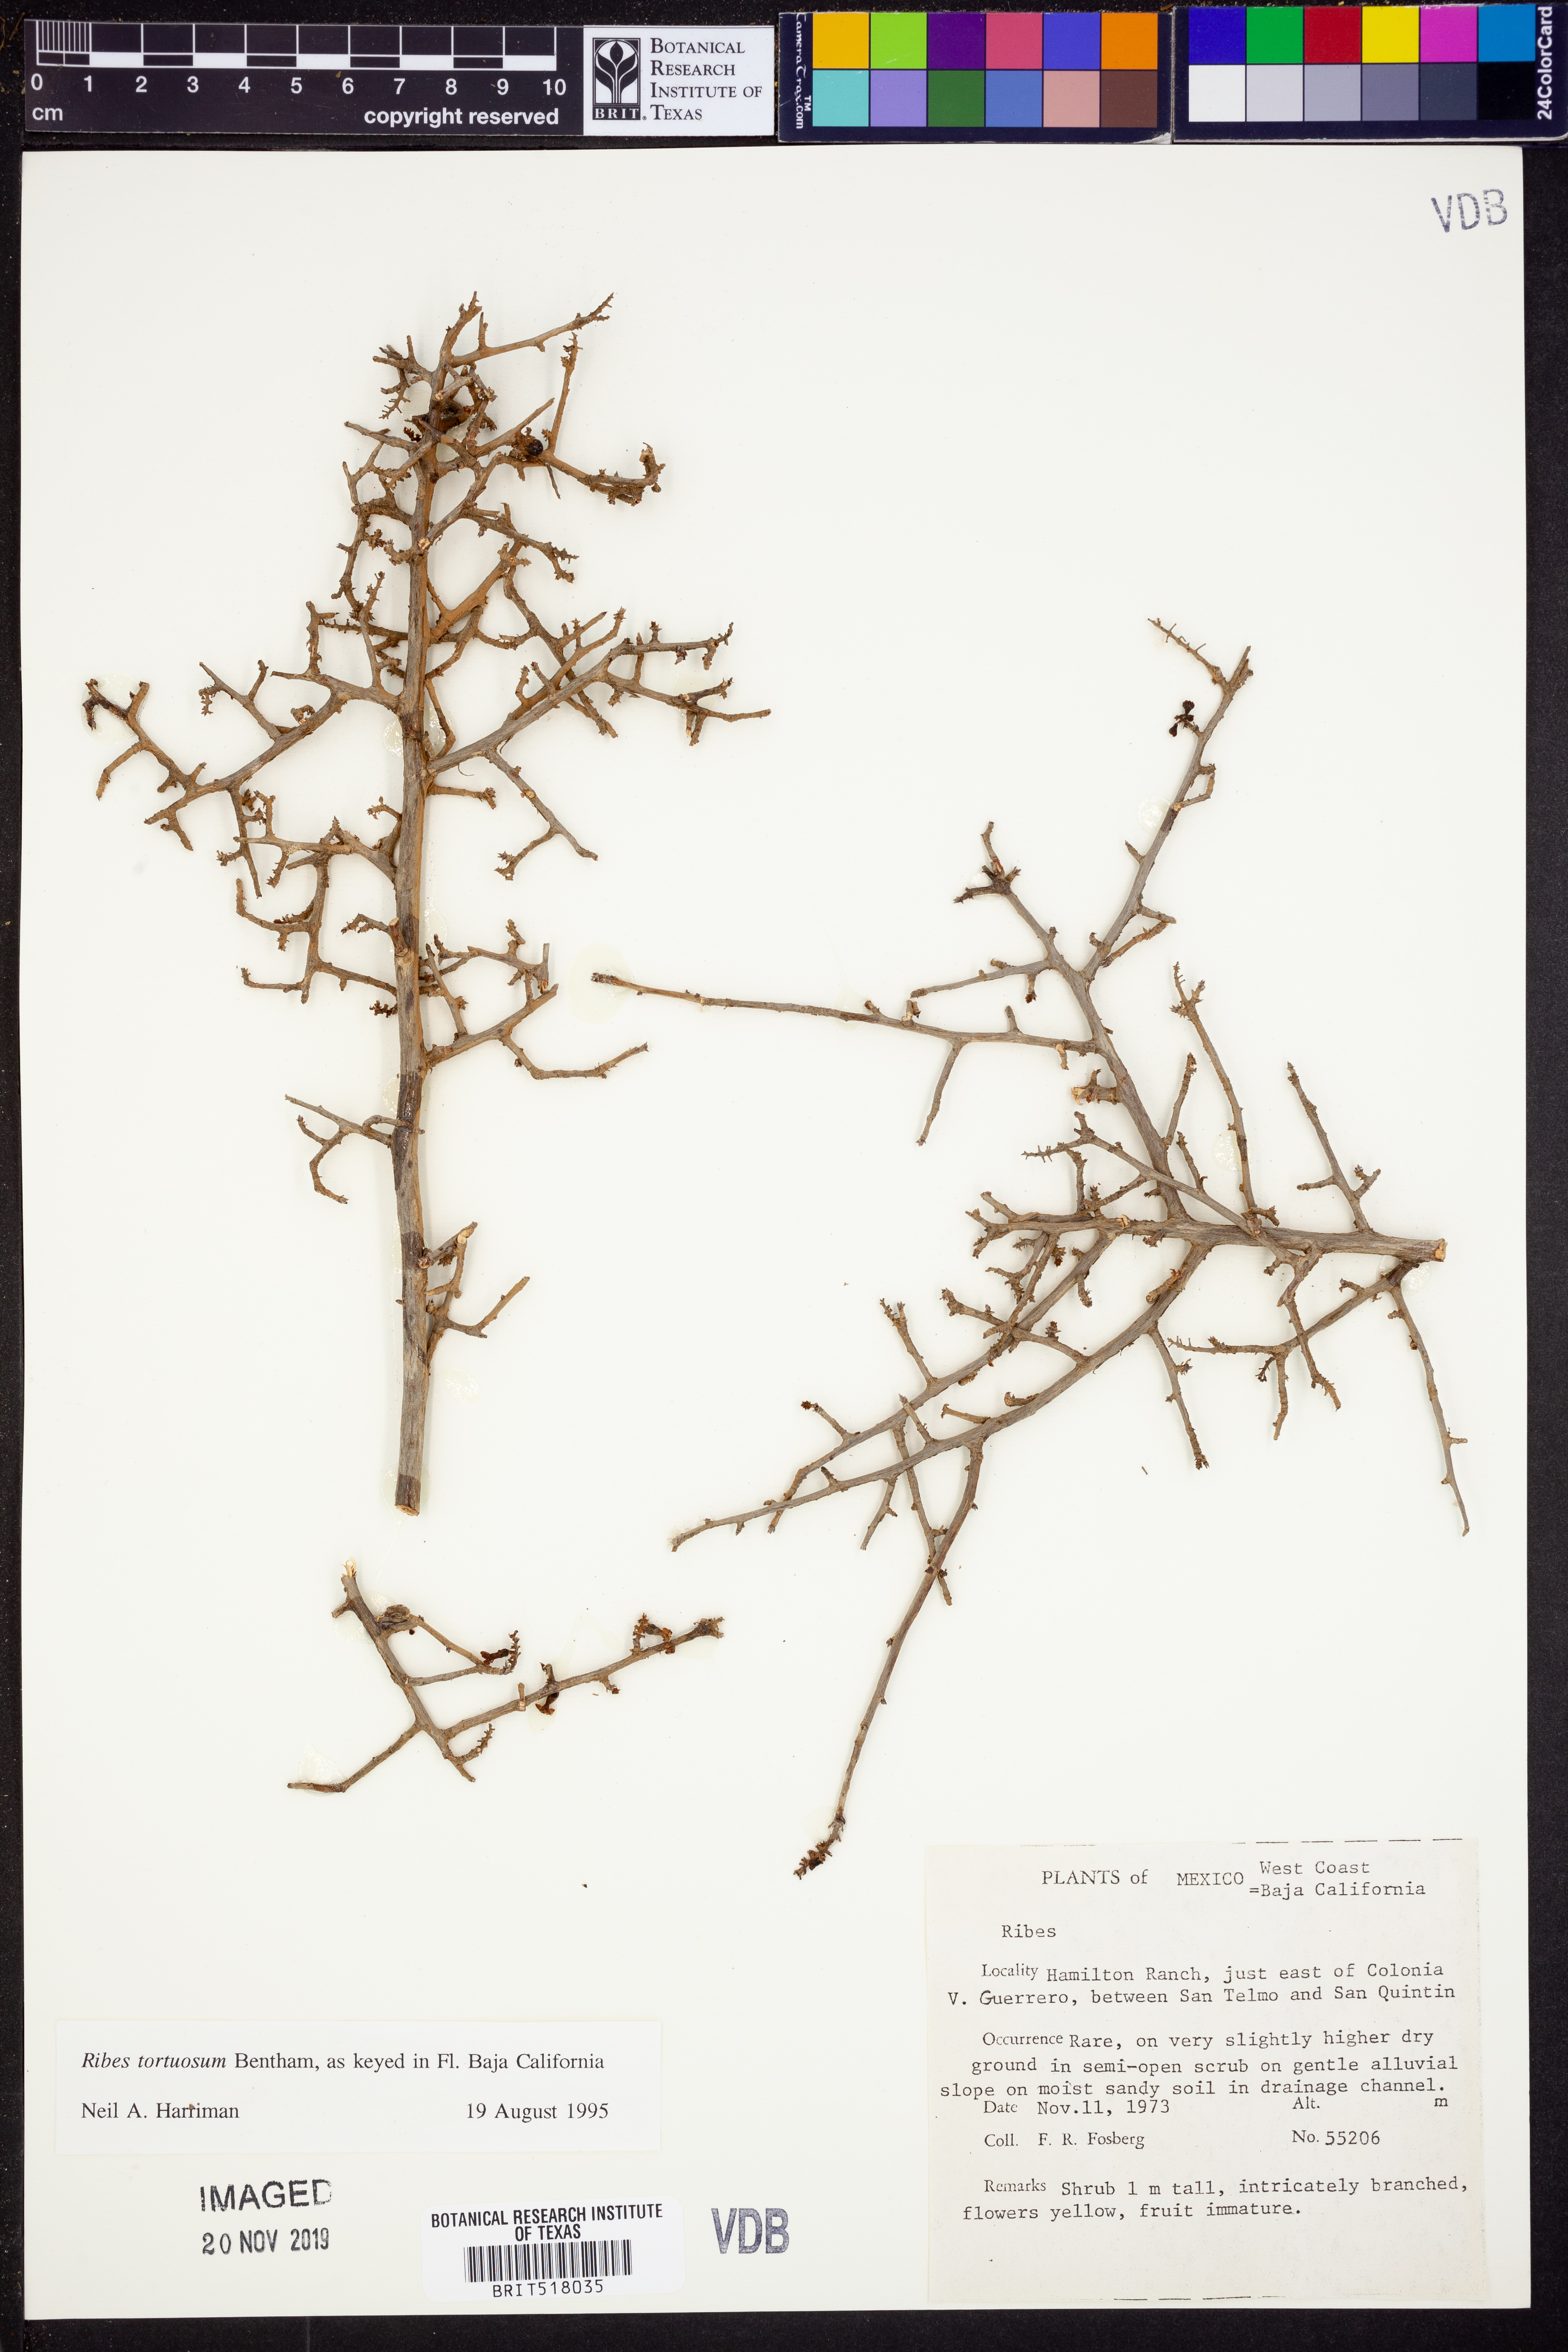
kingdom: Plantae
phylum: Tracheophyta
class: Magnoliopsida
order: Saxifragales
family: Grossulariaceae
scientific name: Grossulariaceae
